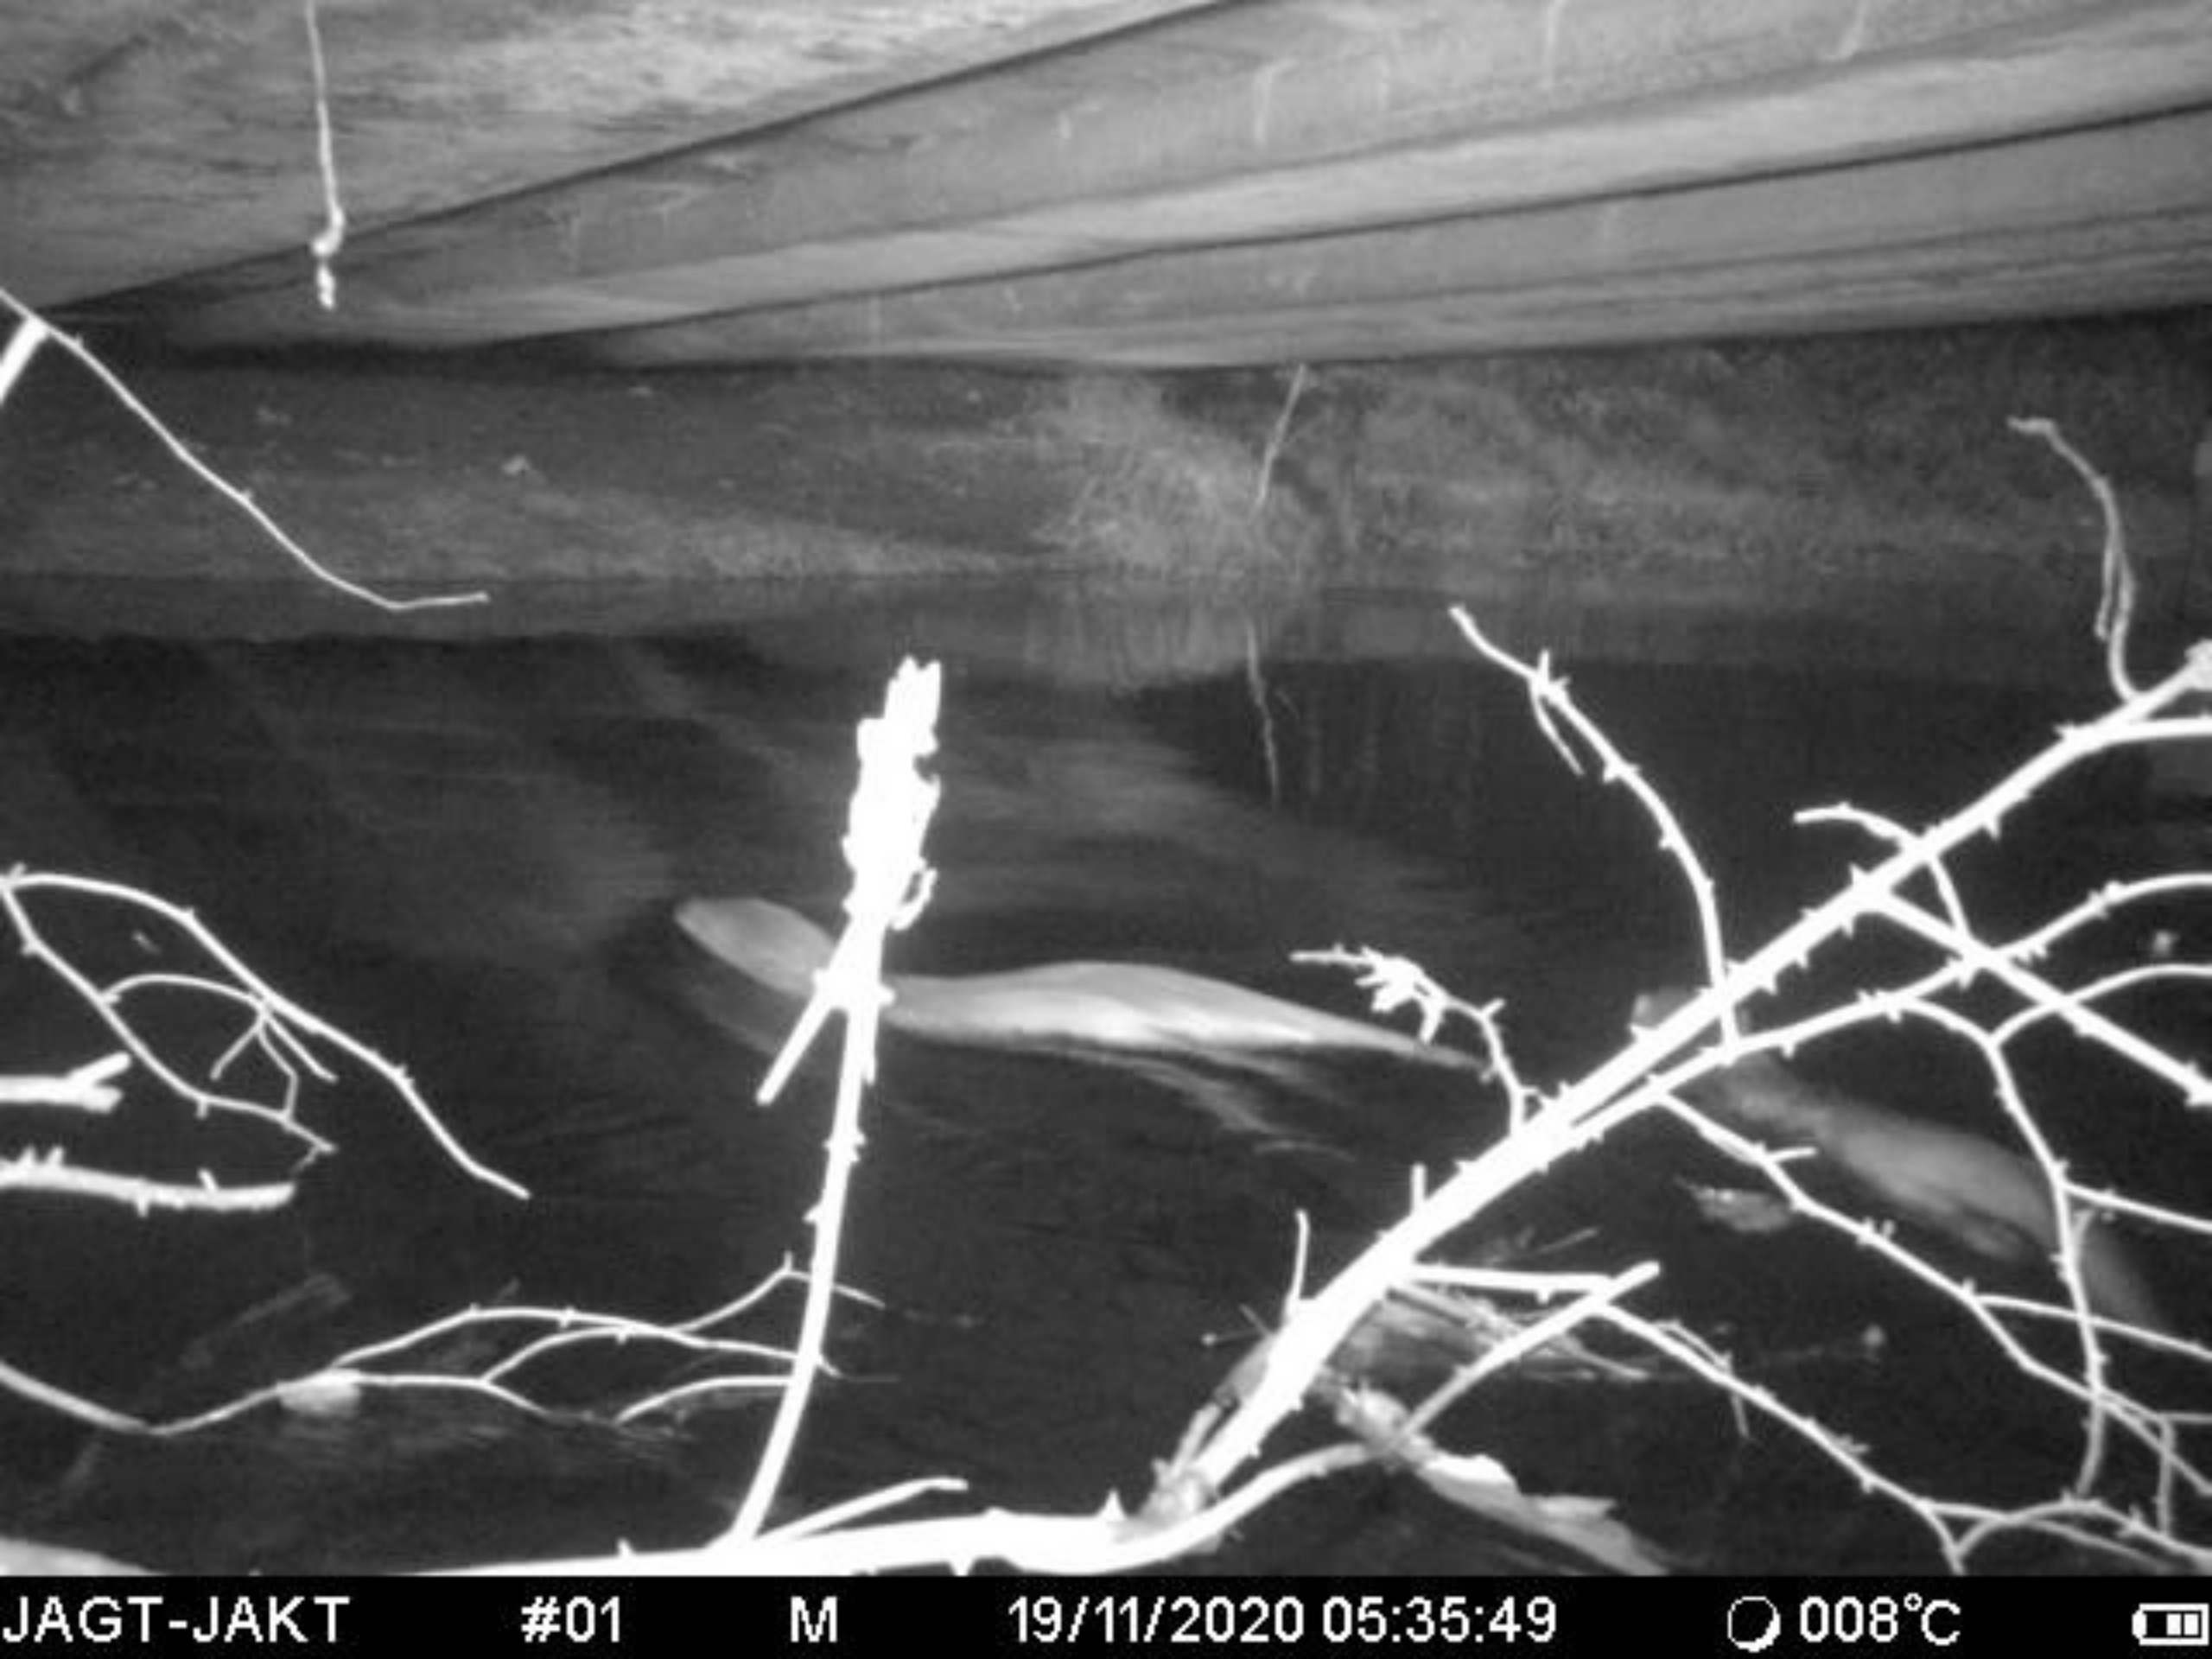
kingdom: Animalia
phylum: Chordata
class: Mammalia
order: Carnivora
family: Mustelidae
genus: Lutra
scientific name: Lutra lutra
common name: Odder
